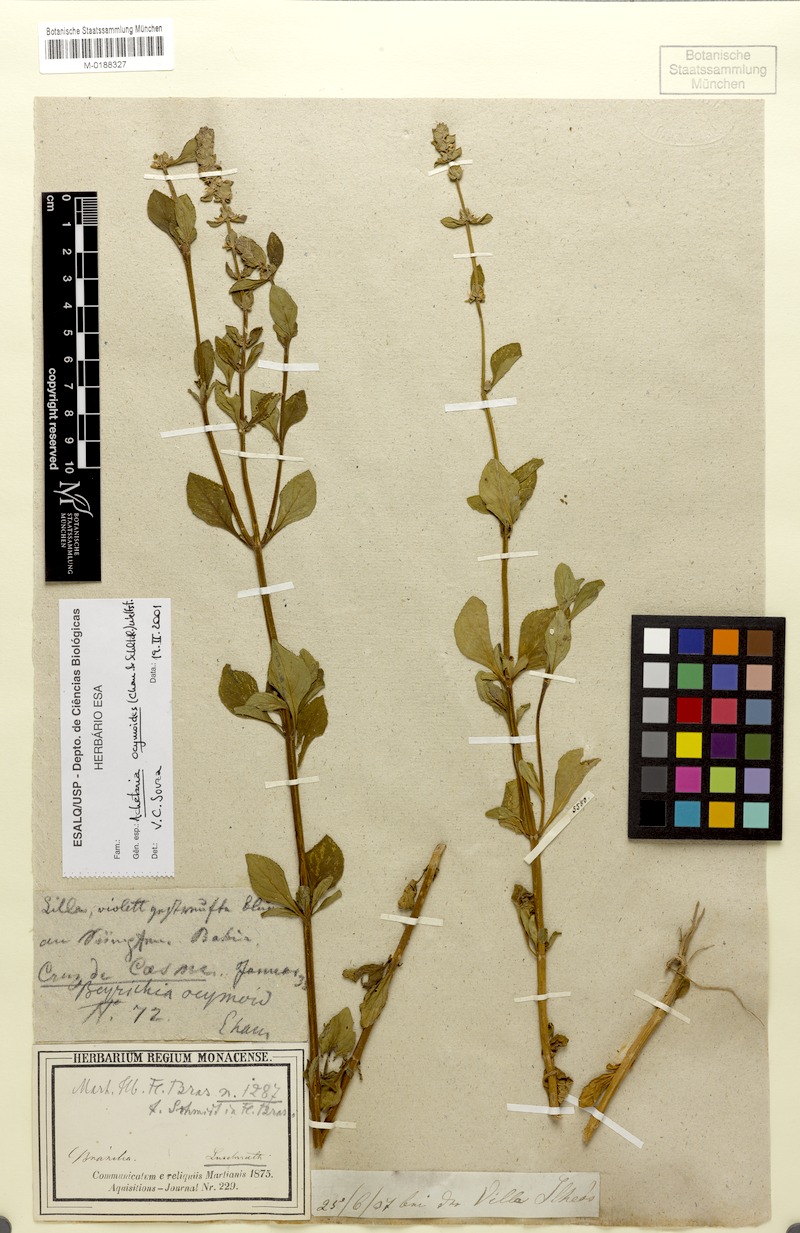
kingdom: Plantae
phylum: Tracheophyta
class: Magnoliopsida
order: Lamiales
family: Plantaginaceae
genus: Matourea
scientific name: Matourea ocymoides
